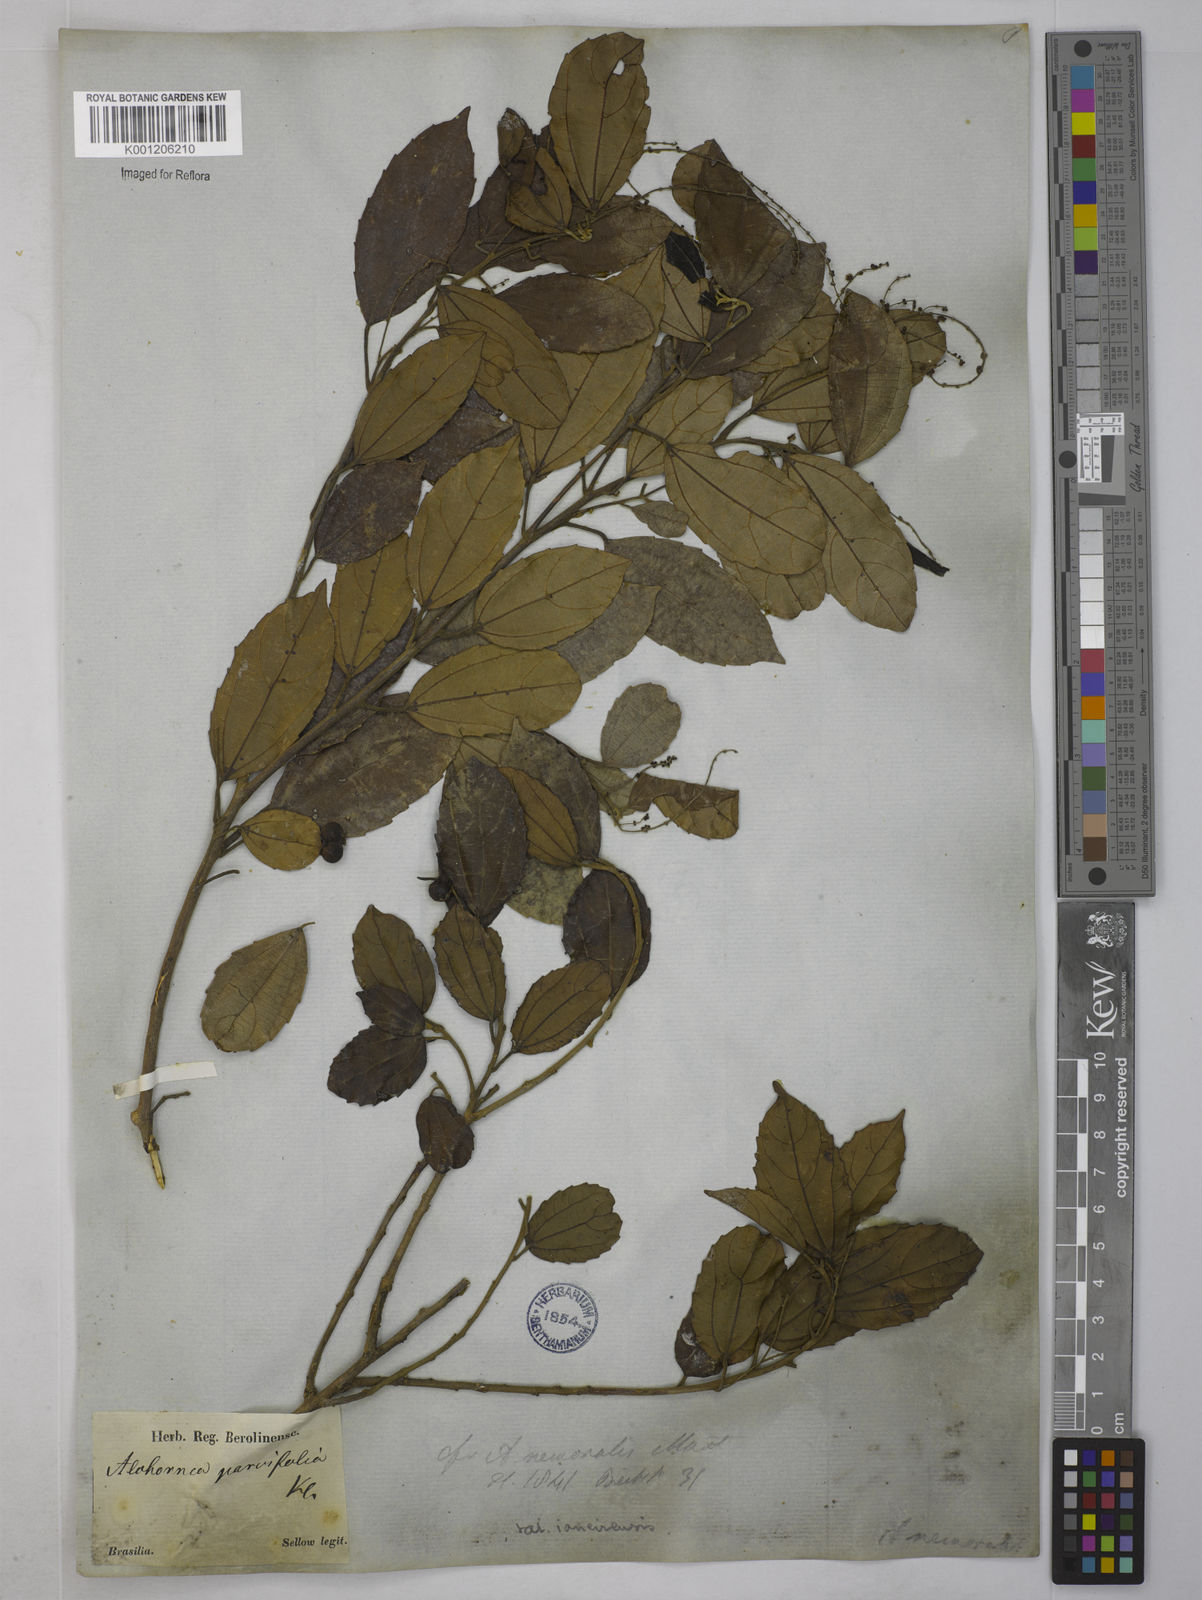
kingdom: Plantae
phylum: Tracheophyta
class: Magnoliopsida
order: Malpighiales
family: Euphorbiaceae
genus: Alchornea
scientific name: Alchornea
